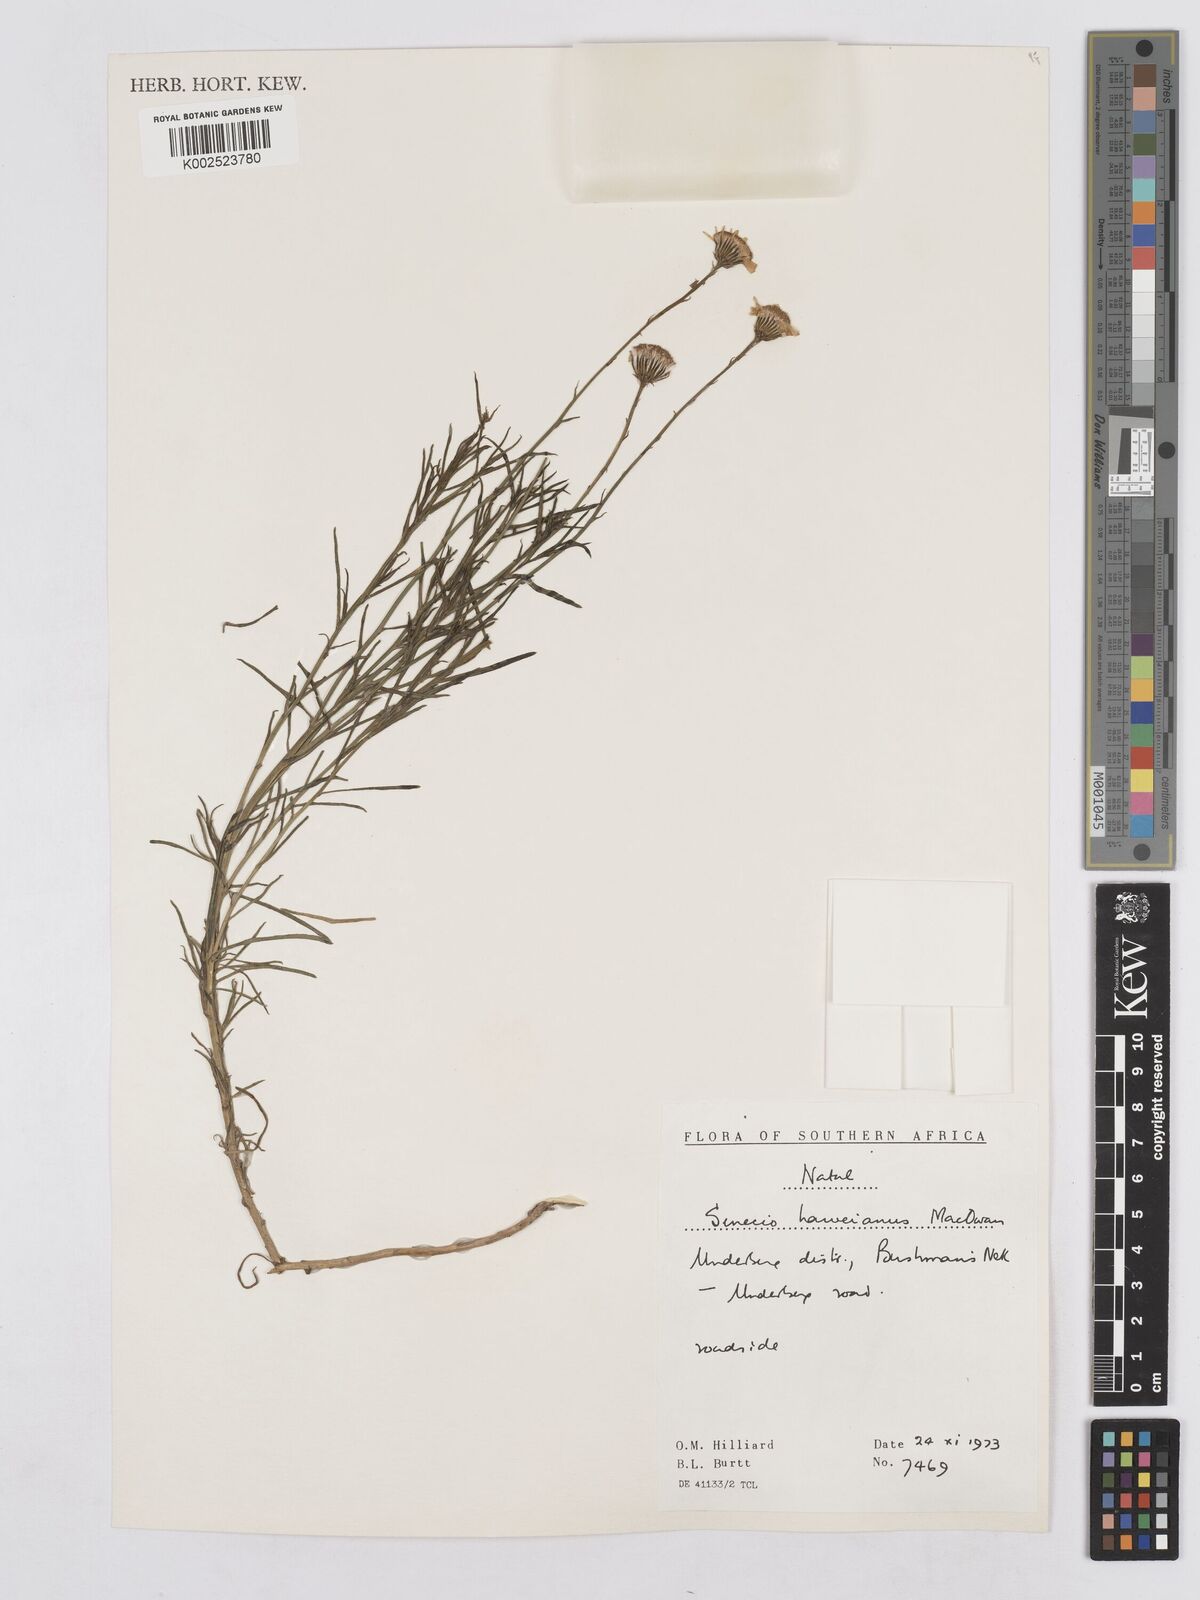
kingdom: Plantae
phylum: Tracheophyta
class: Magnoliopsida
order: Asterales
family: Asteraceae
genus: Senecio
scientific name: Senecio harveyanus
